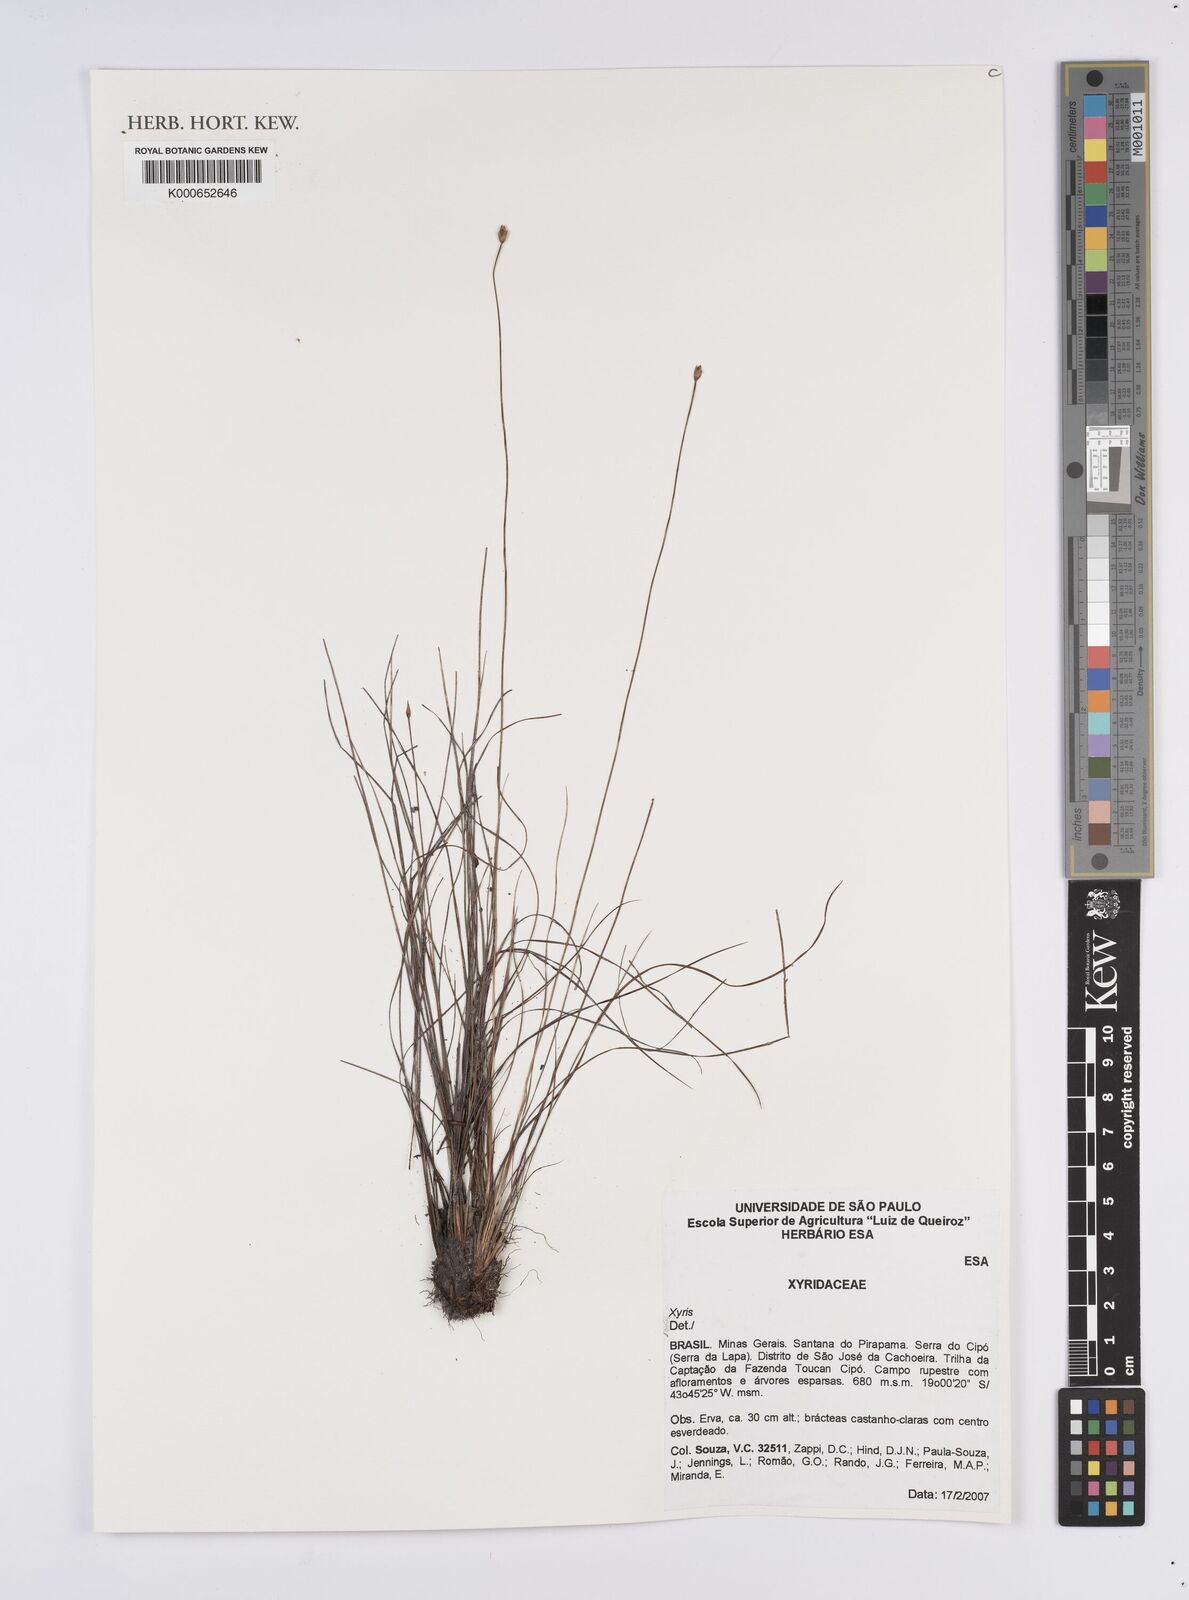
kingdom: Plantae
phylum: Tracheophyta
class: Liliopsida
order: Poales
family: Xyridaceae
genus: Xyris
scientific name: Xyris
